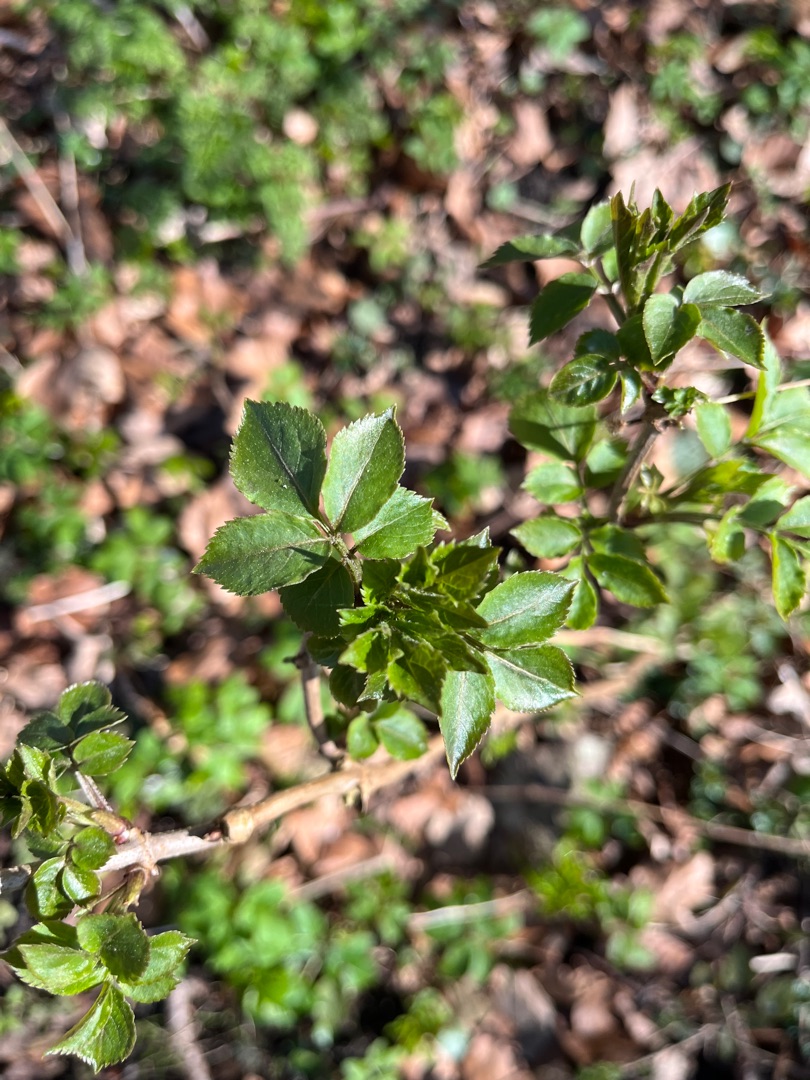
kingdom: Plantae
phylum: Tracheophyta
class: Magnoliopsida
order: Dipsacales
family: Viburnaceae
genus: Sambucus
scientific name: Sambucus nigra
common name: Almindelig hyld
